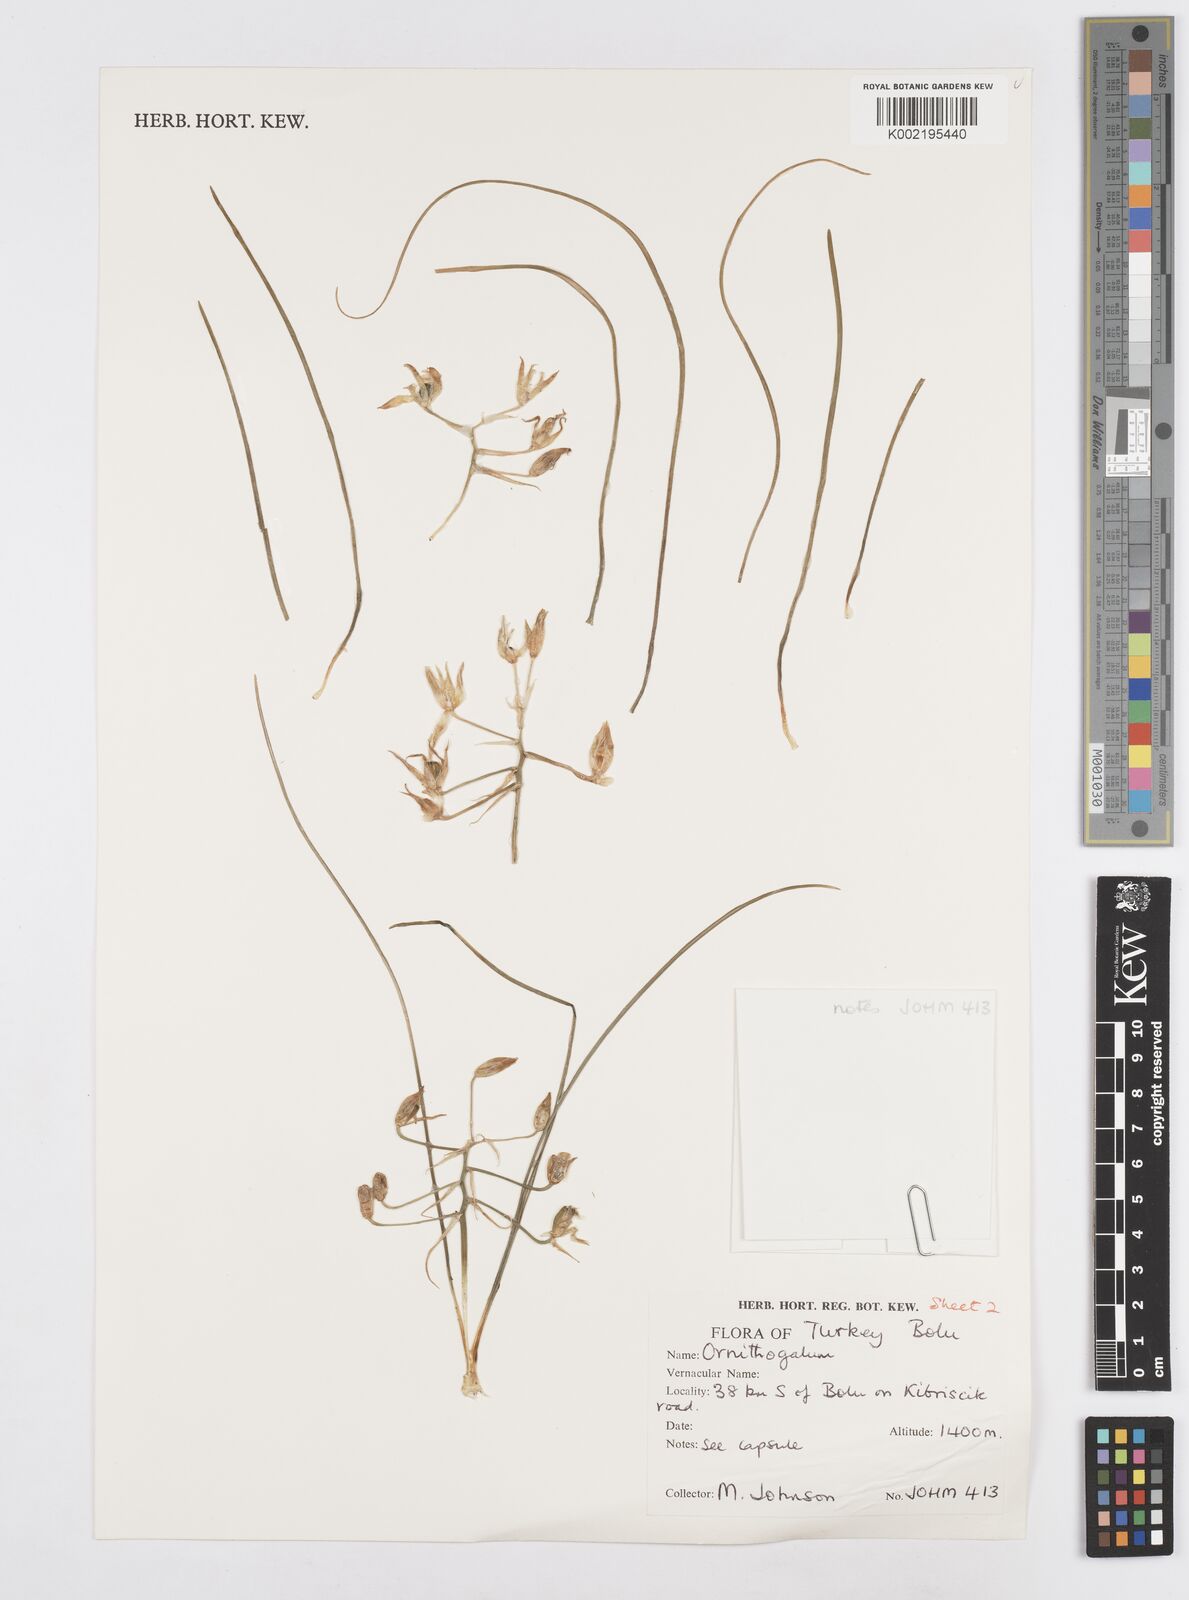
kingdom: Plantae
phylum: Tracheophyta
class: Liliopsida
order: Asparagales
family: Asparagaceae
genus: Ornithogalum
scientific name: Ornithogalum
